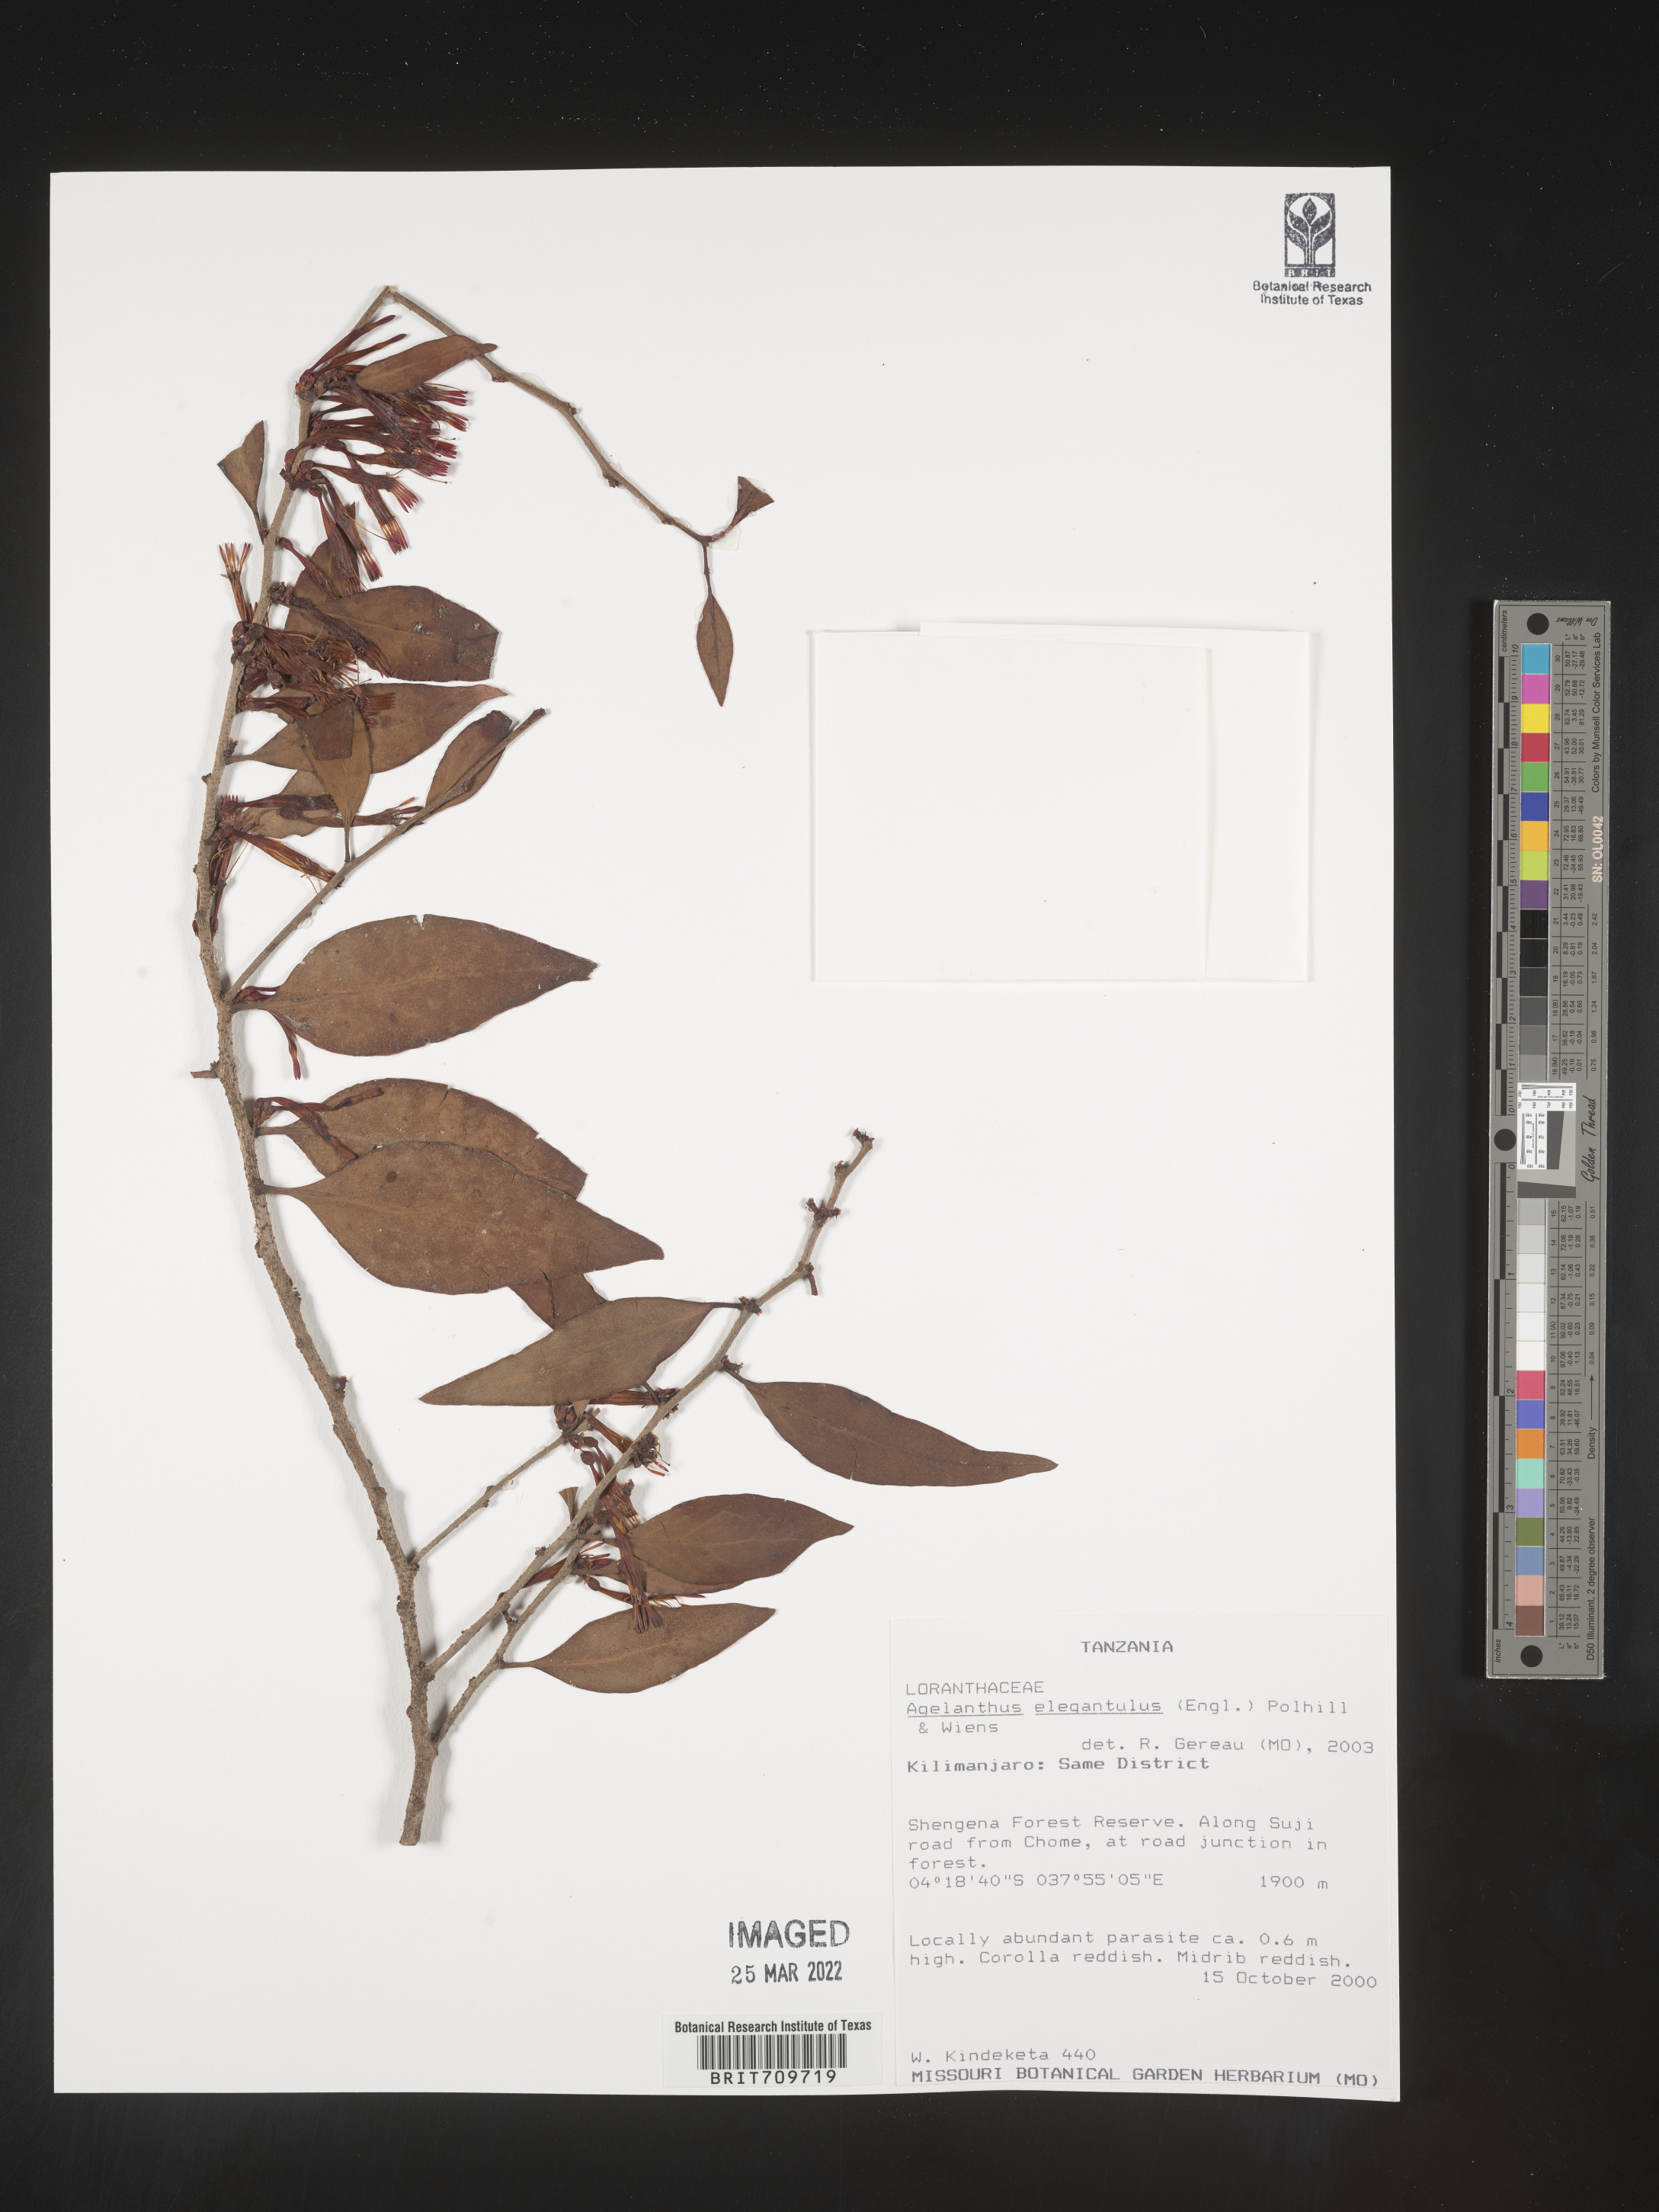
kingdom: Plantae
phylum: Tracheophyta
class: Magnoliopsida
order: Santalales
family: Loranthaceae
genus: Agelanthus
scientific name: Agelanthus
